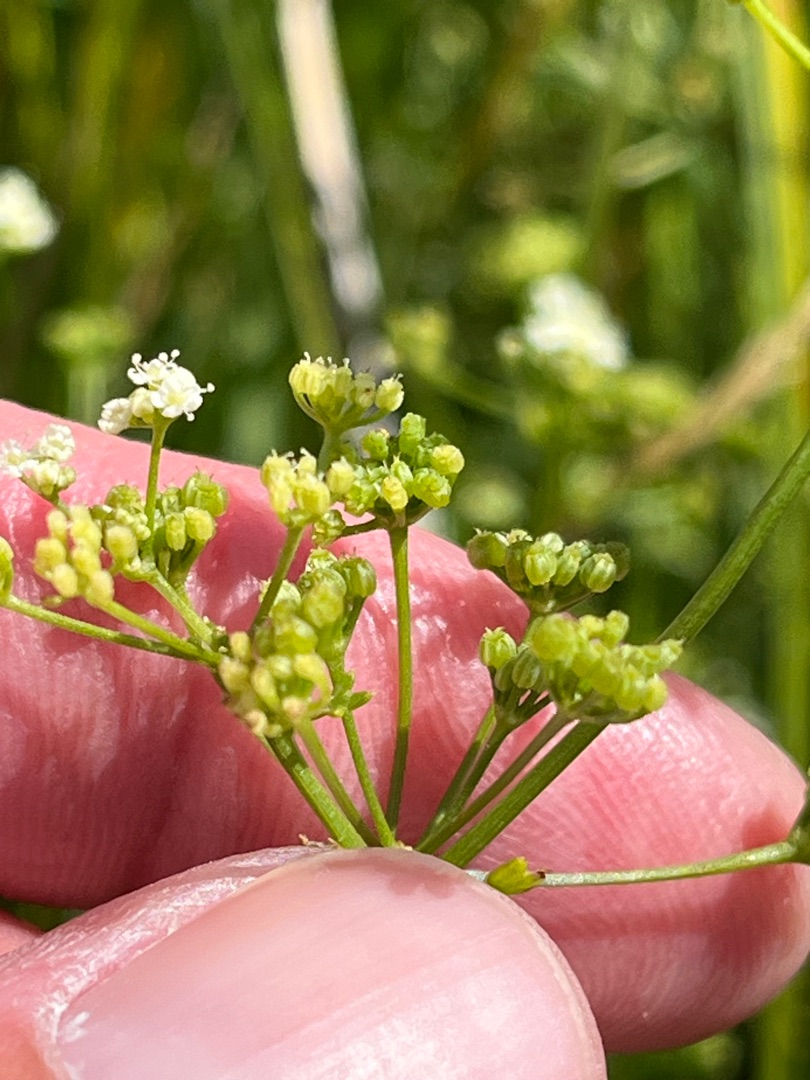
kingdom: Plantae
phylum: Tracheophyta
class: Magnoliopsida
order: Apiales
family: Apiaceae
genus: Apium
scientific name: Apium graveolens
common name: Vild selleri
